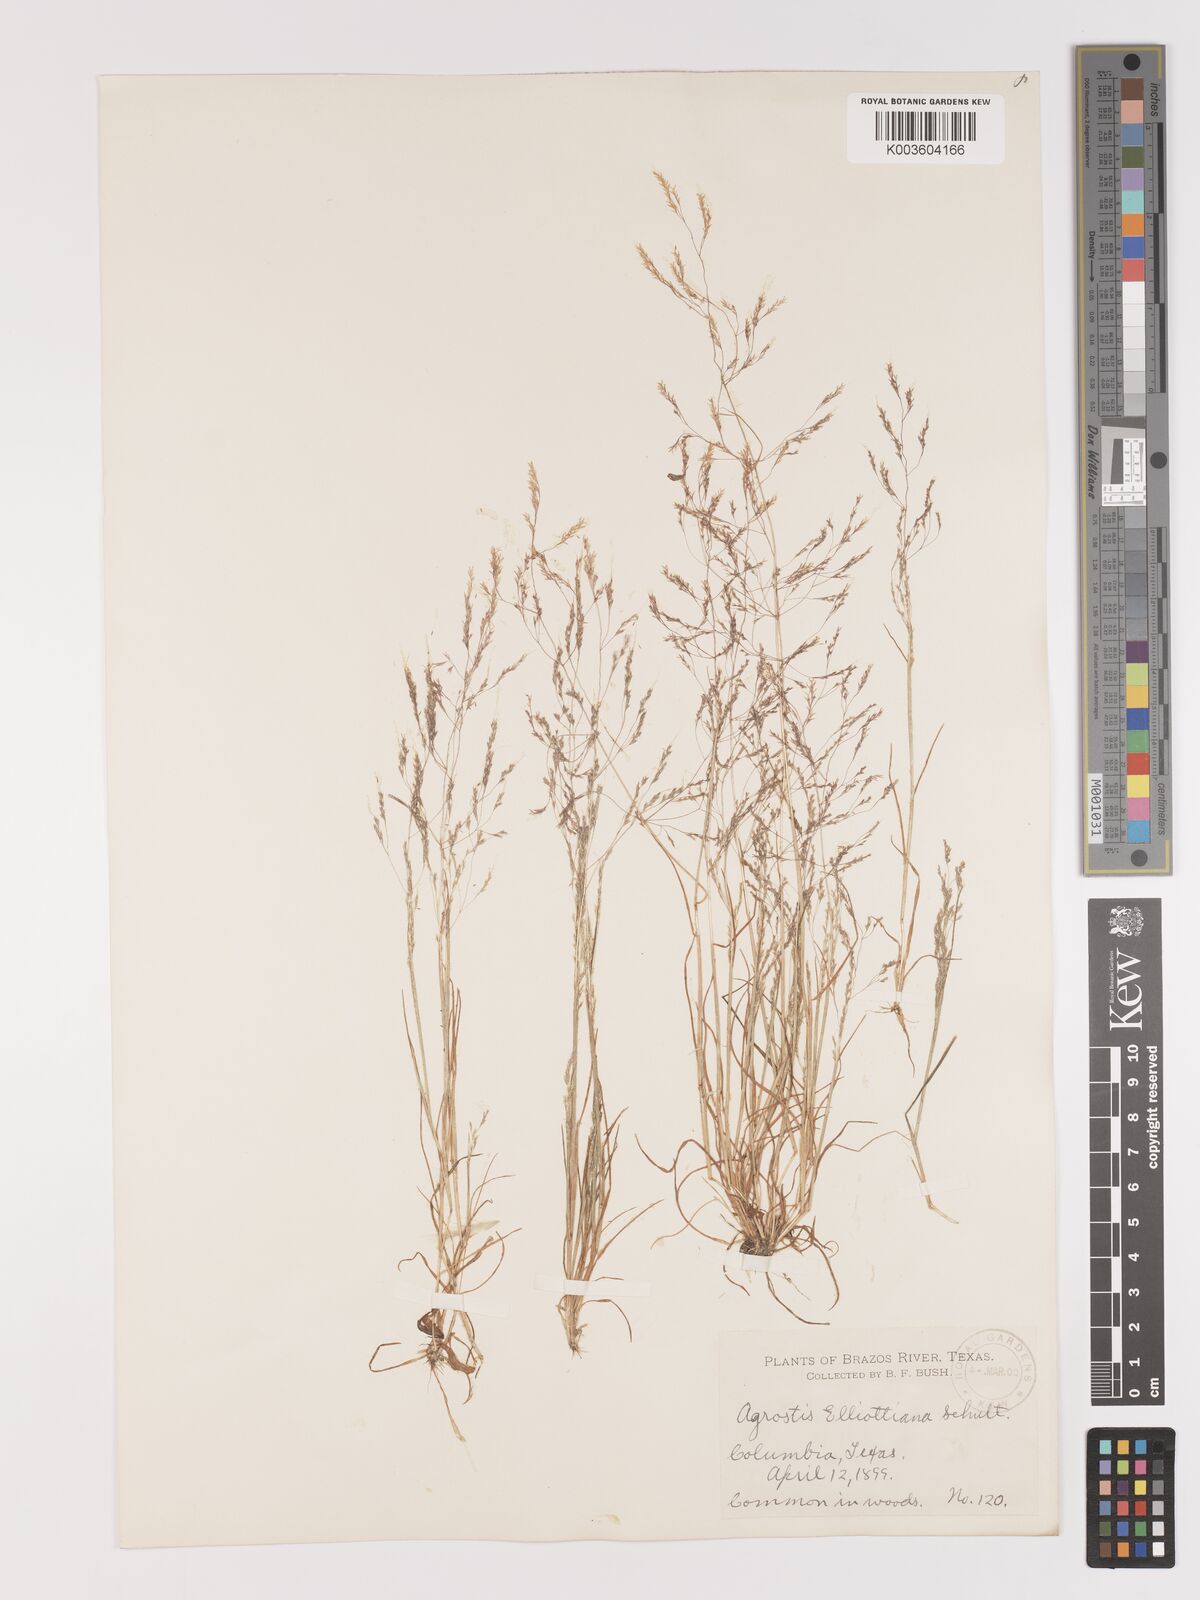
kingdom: Plantae
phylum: Tracheophyta
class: Liliopsida
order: Poales
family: Poaceae
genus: Agrostis
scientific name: Agrostis elliottiana
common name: Elliott's bent
